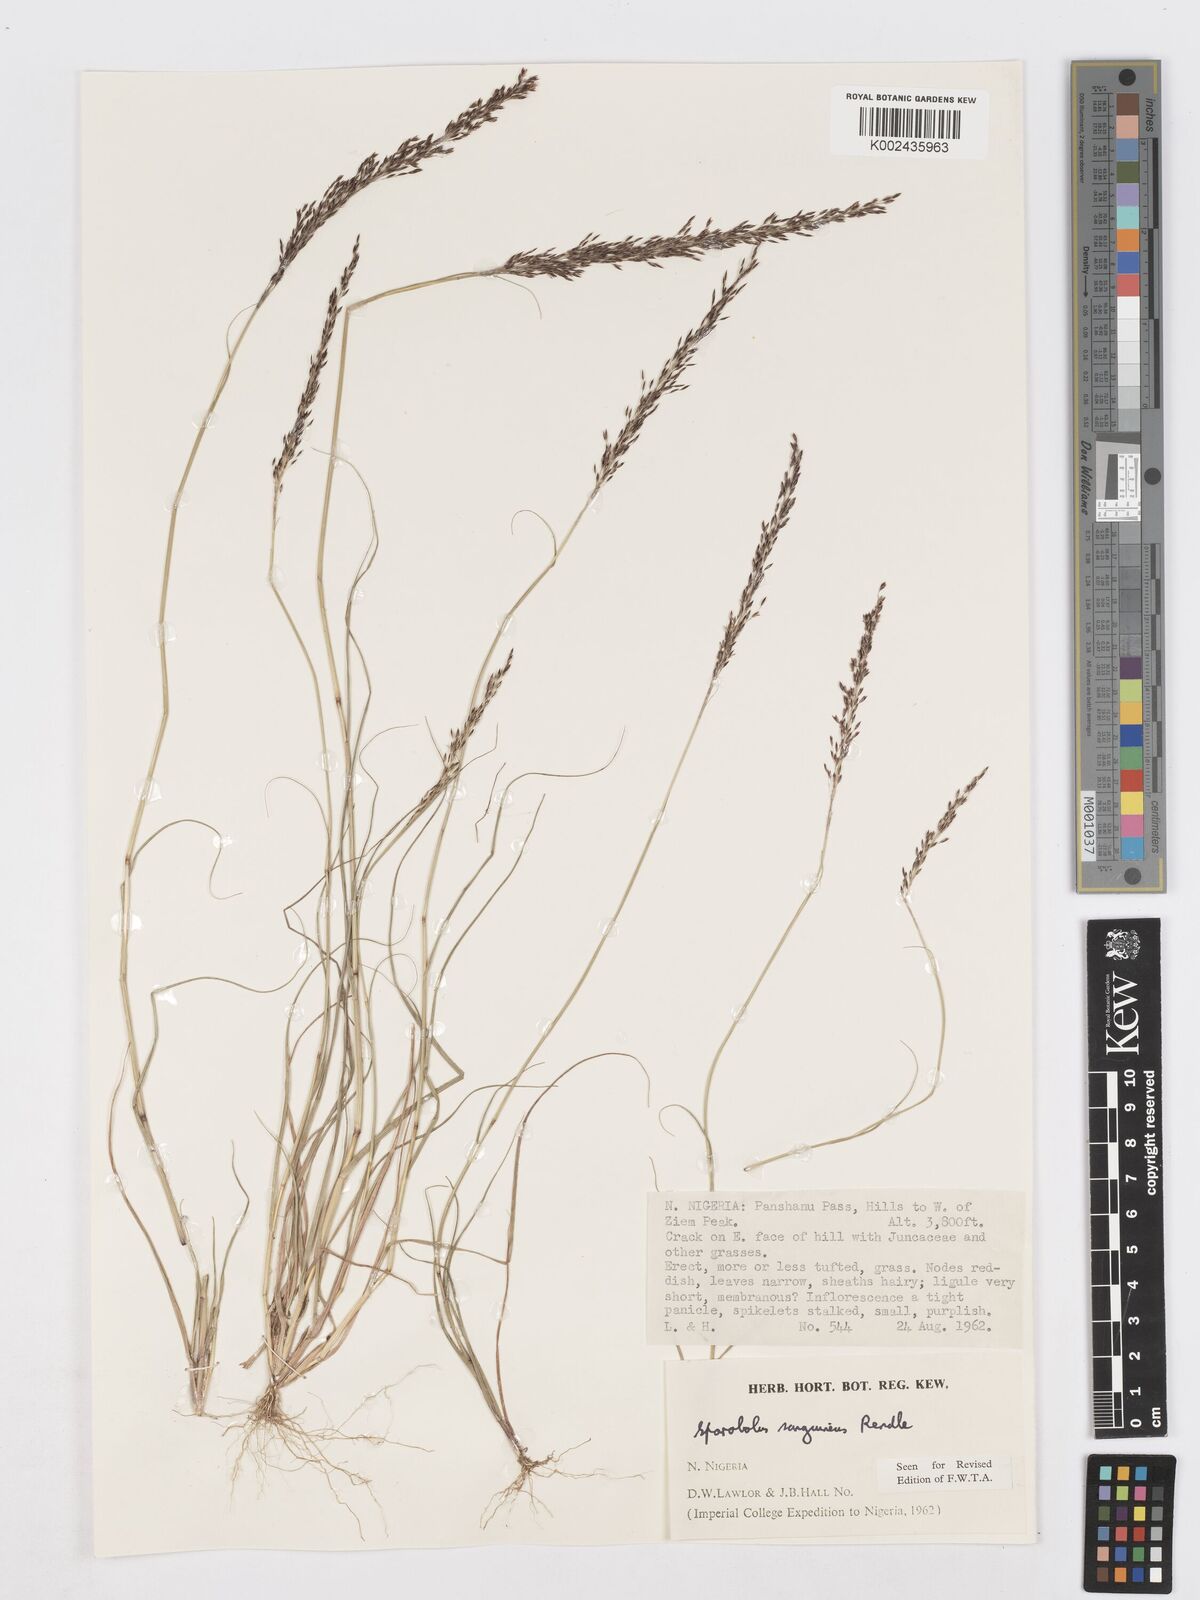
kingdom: Plantae
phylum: Tracheophyta
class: Liliopsida
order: Poales
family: Poaceae
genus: Sporobolus
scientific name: Sporobolus sanguineus
